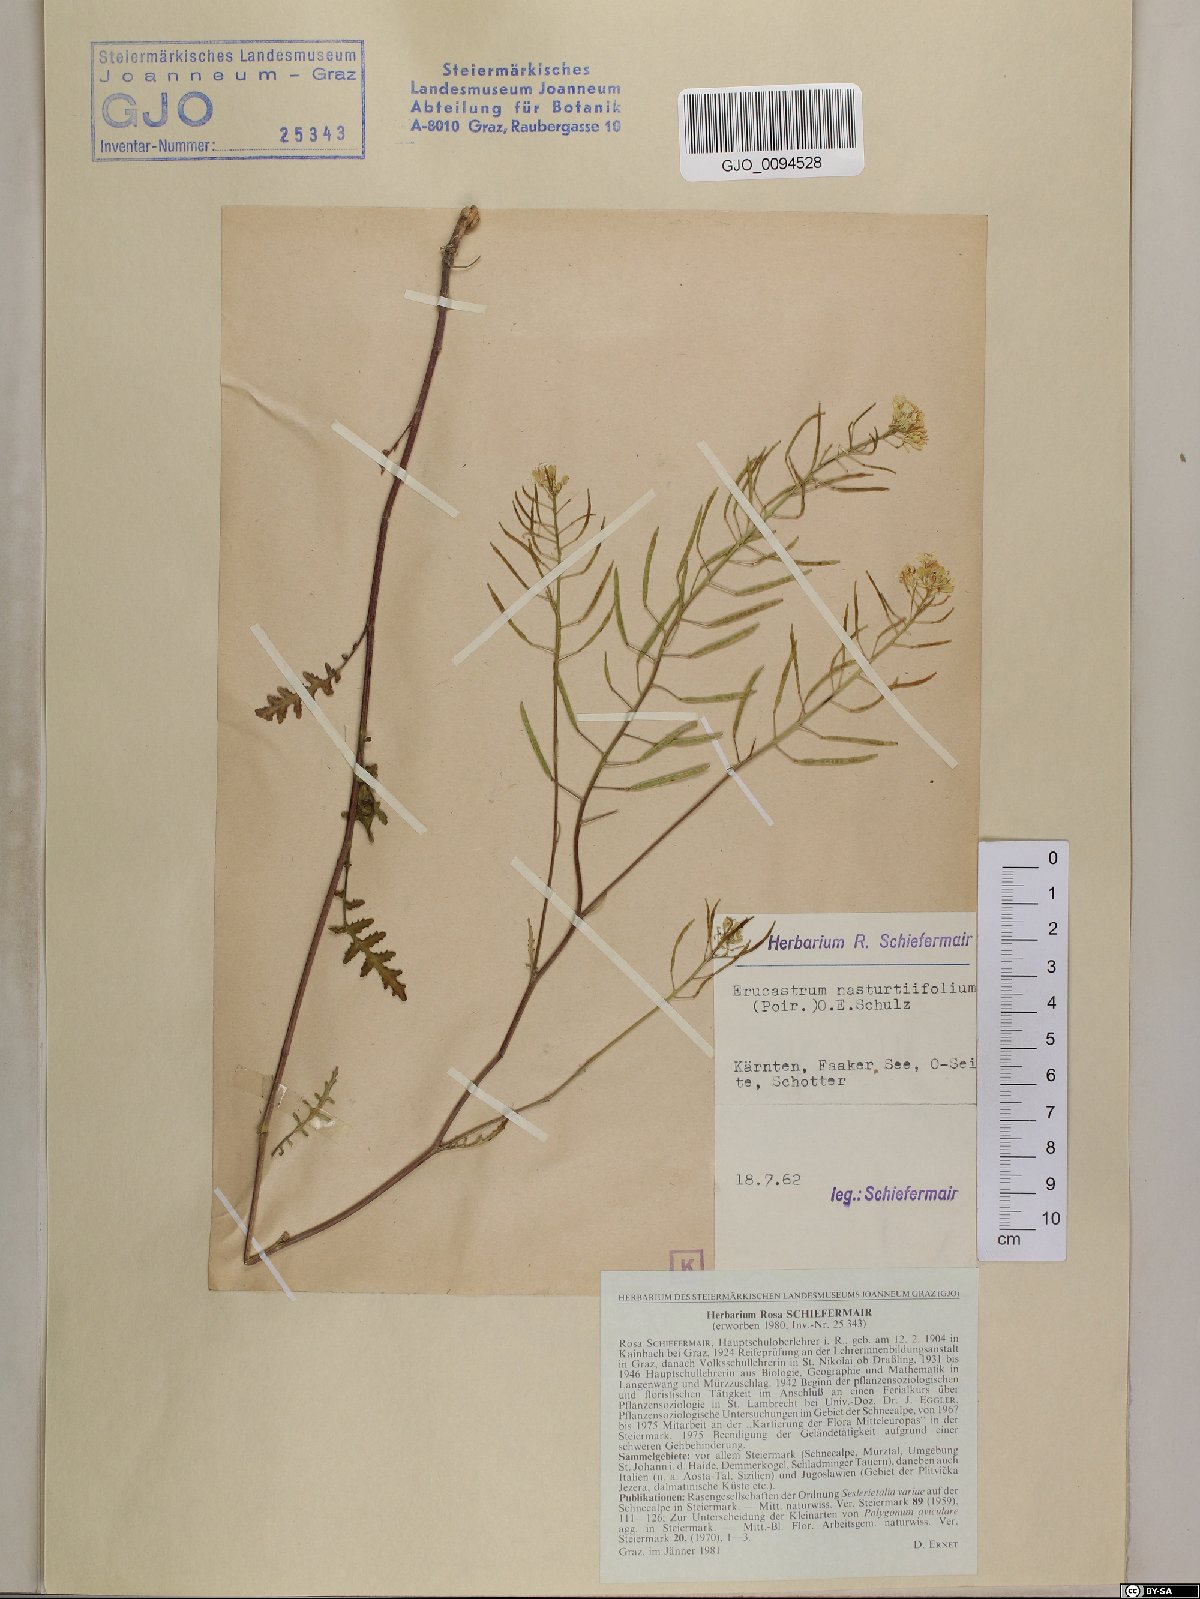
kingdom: Plantae
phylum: Tracheophyta
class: Magnoliopsida
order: Brassicales
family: Brassicaceae
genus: Erucastrum
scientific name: Erucastrum nasturtiifolium
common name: Watercress-leaf rocket
